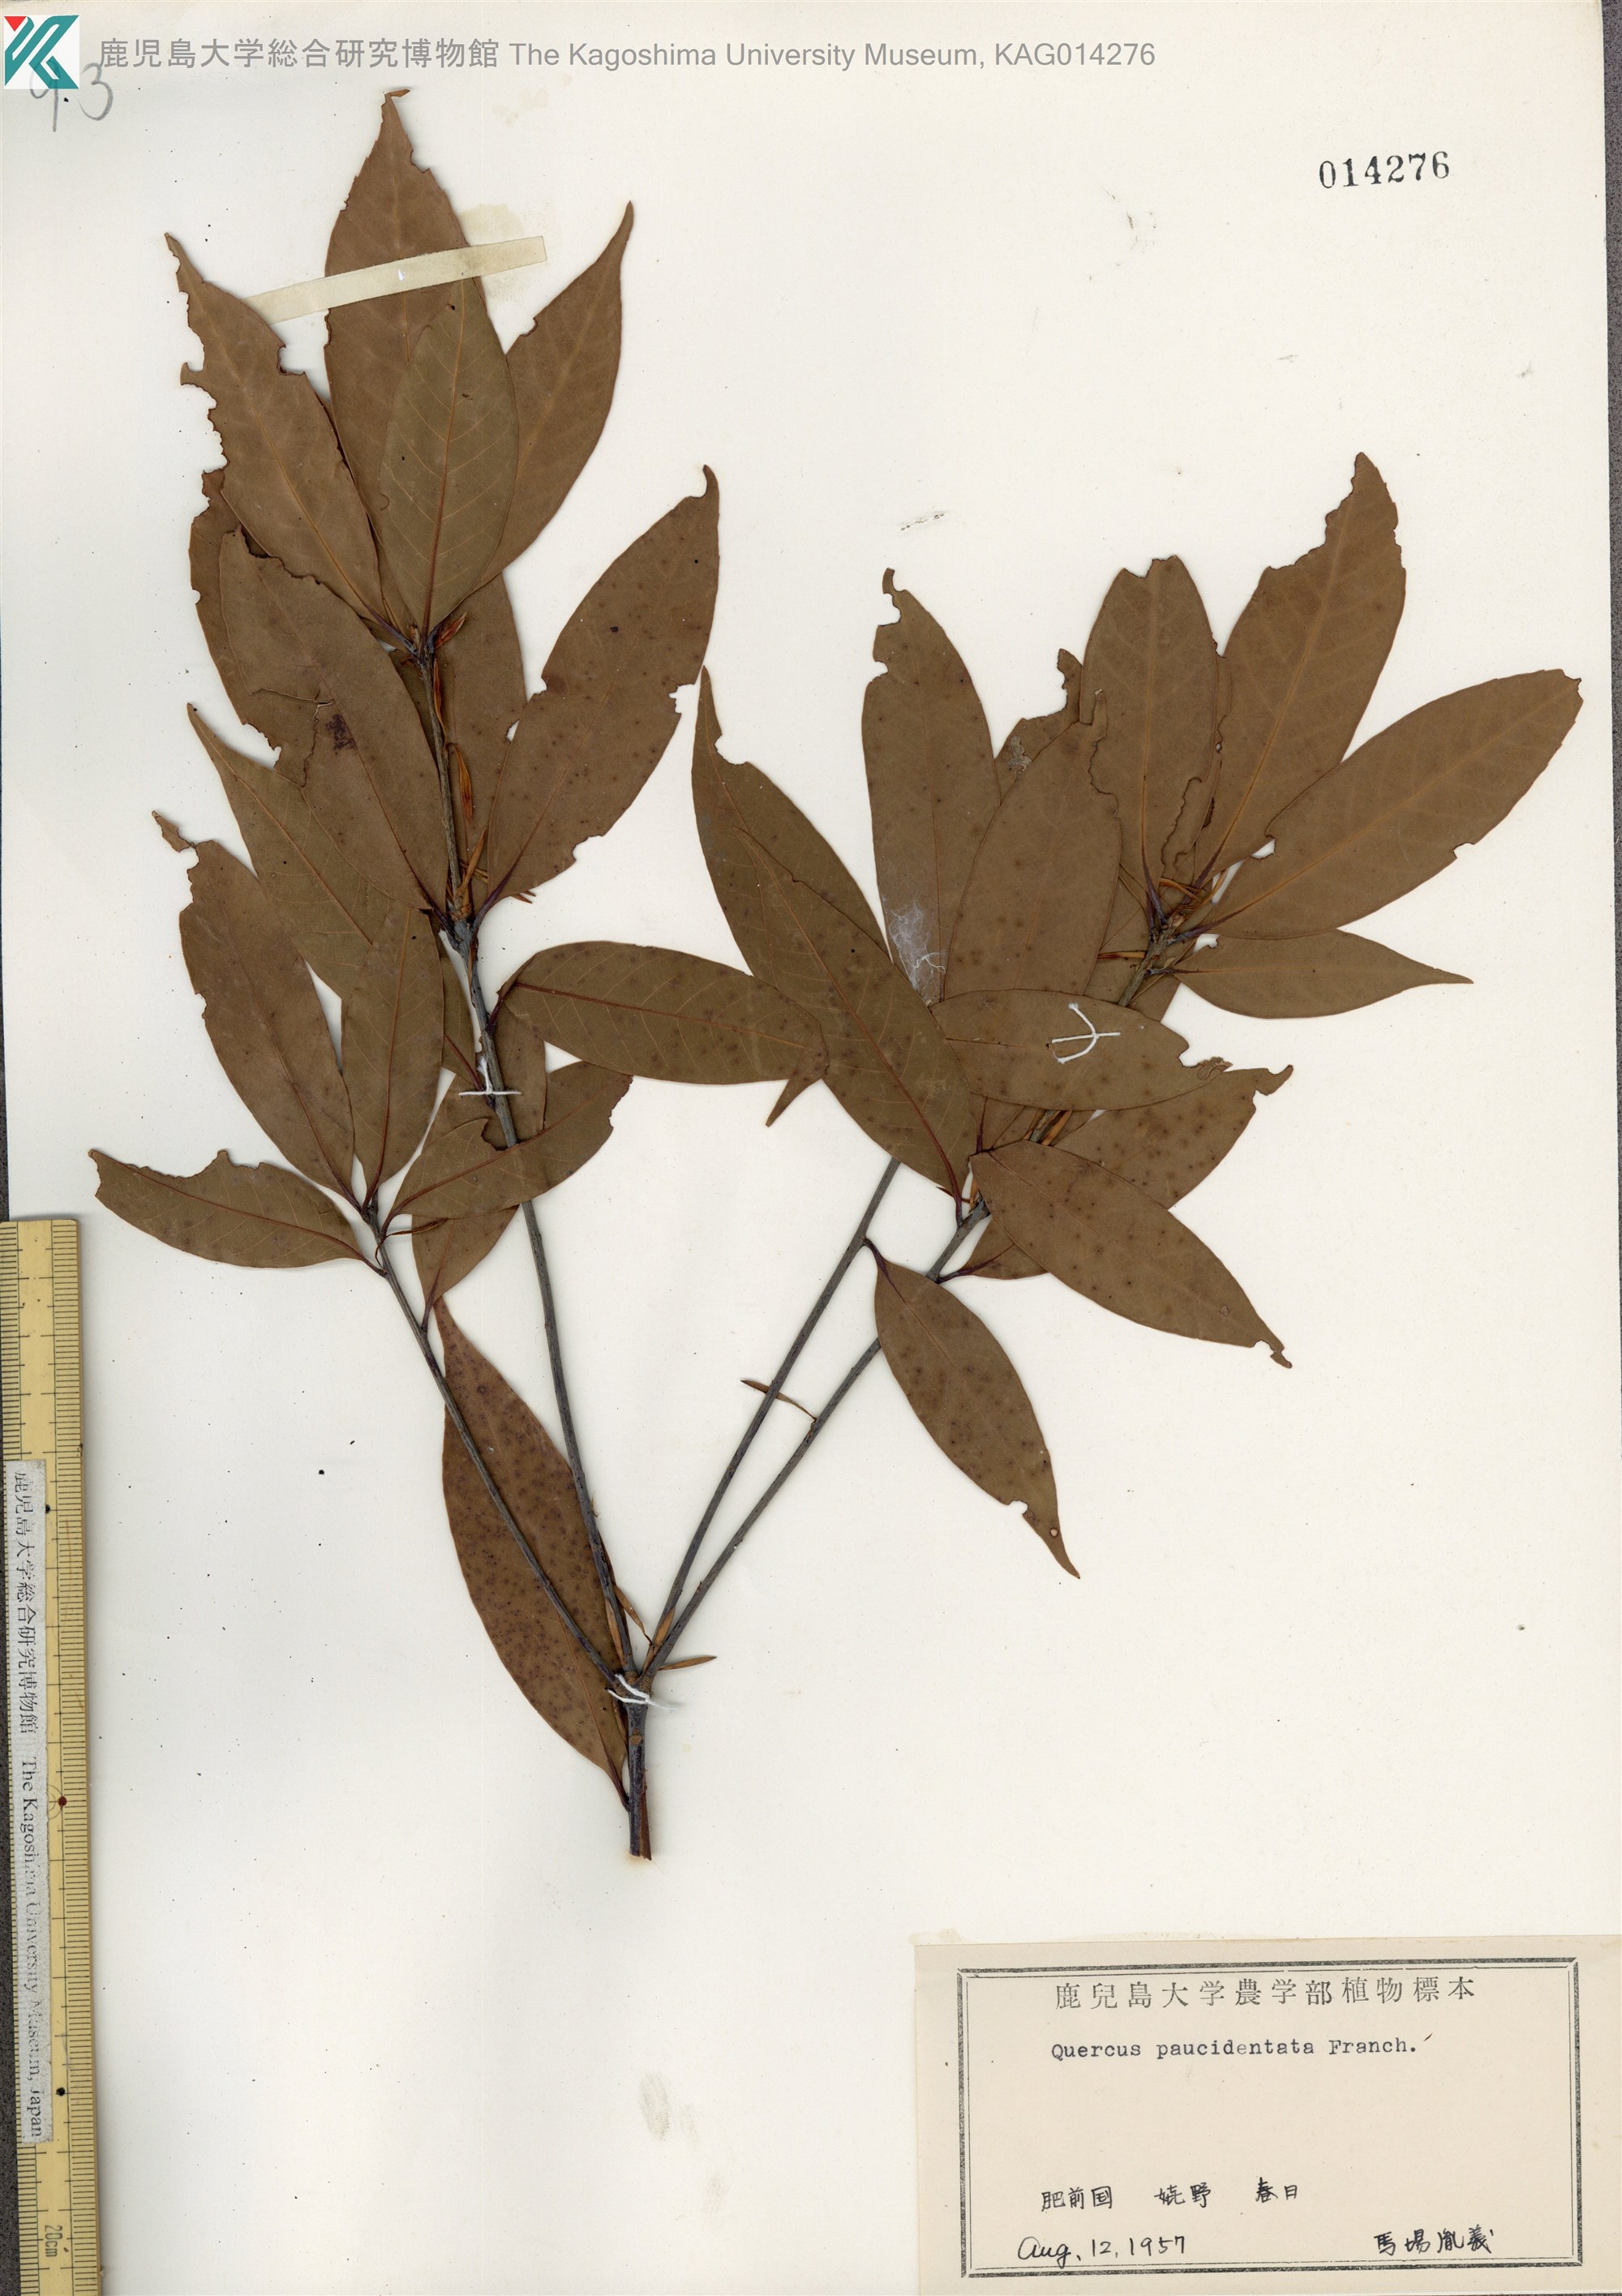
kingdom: Plantae
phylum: Tracheophyta
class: Magnoliopsida
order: Fagales
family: Fagaceae
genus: Quercus
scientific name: Quercus sessilifolia
